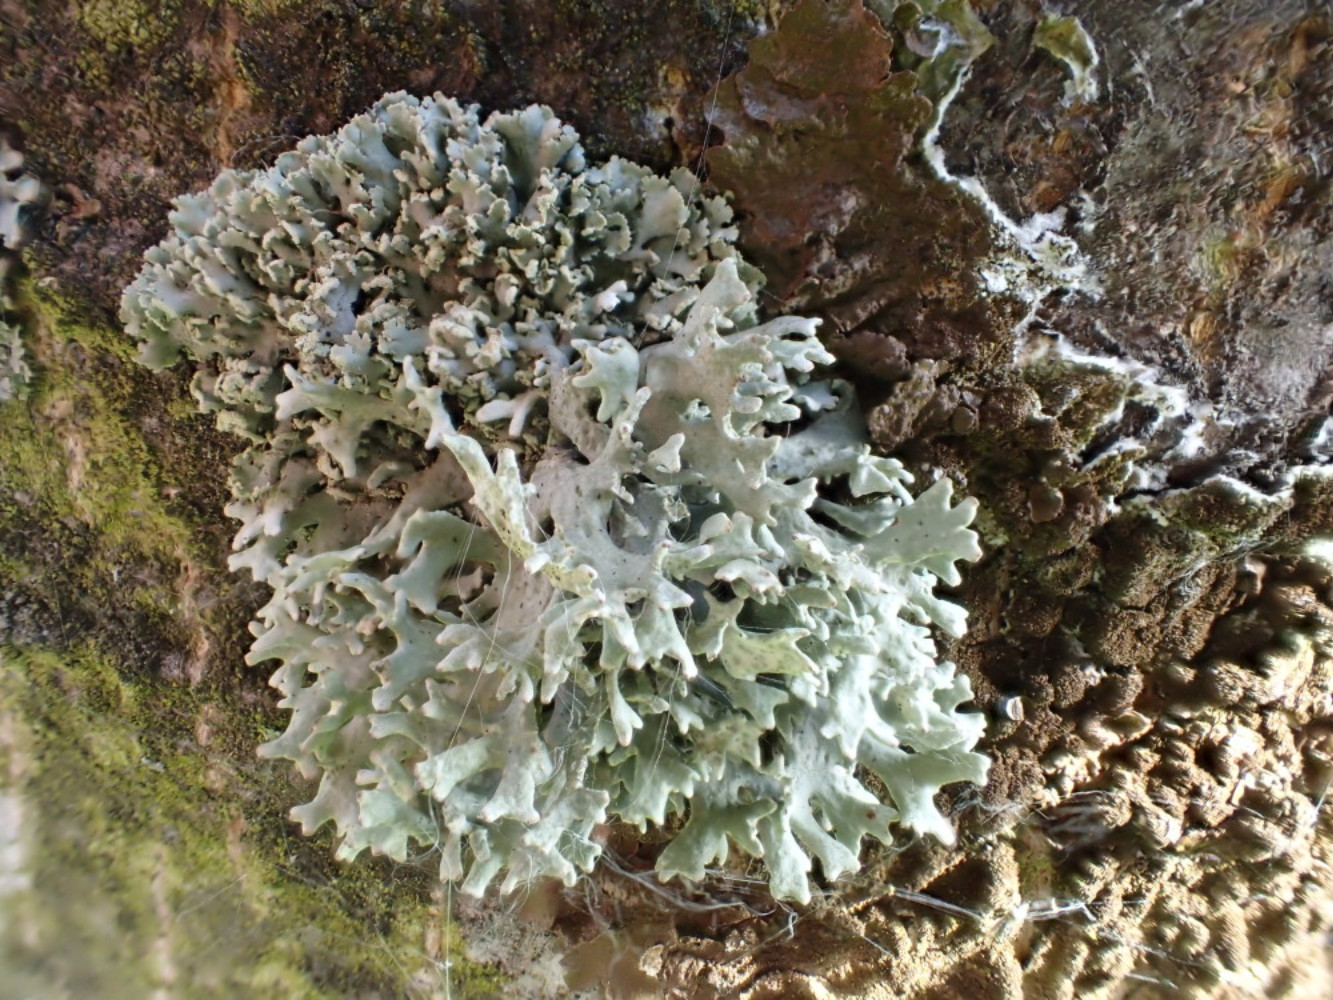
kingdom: Fungi
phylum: Ascomycota
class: Lecanoromycetes
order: Lecanorales
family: Parmeliaceae
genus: Evernia
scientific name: Evernia prunastri
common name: almindelig slåenlav
